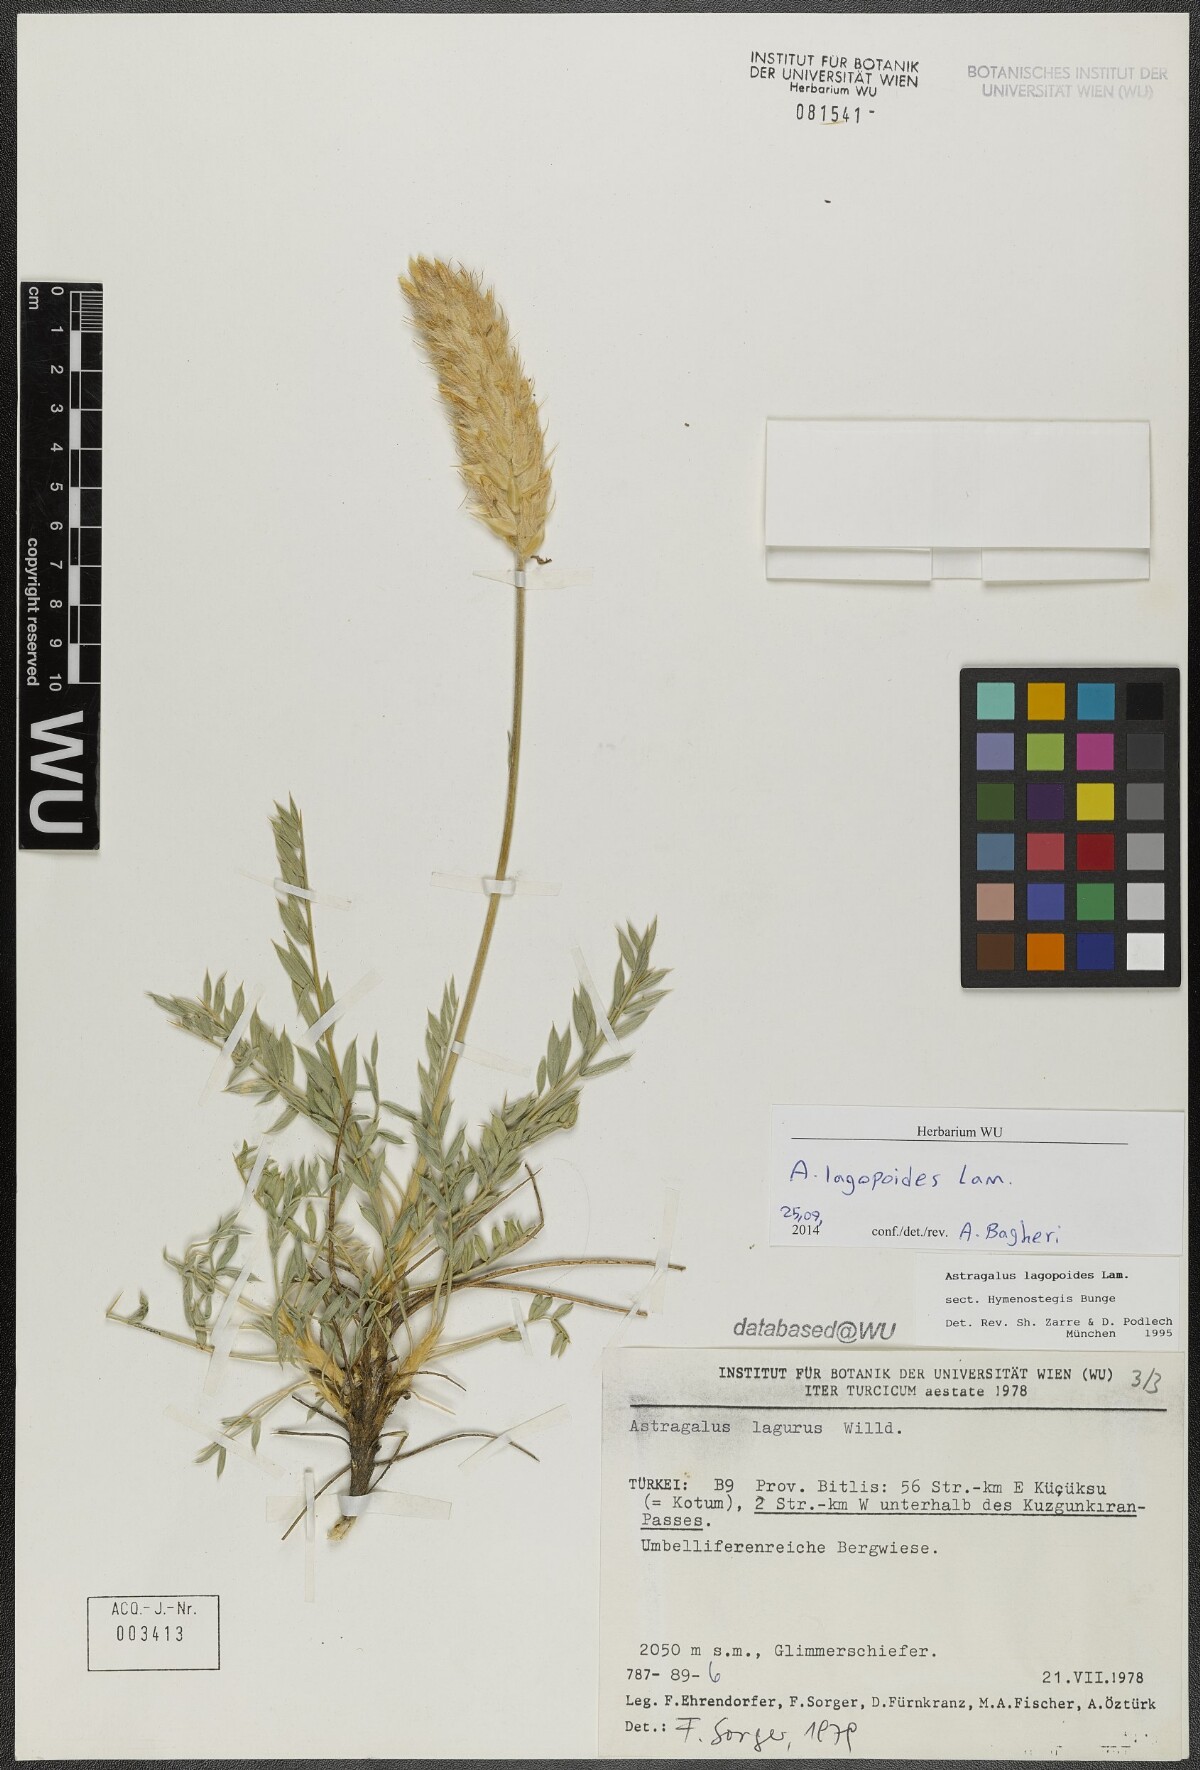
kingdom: Plantae
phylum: Tracheophyta
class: Magnoliopsida
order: Fabales
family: Fabaceae
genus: Astragalus
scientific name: Astragalus lagopoides
